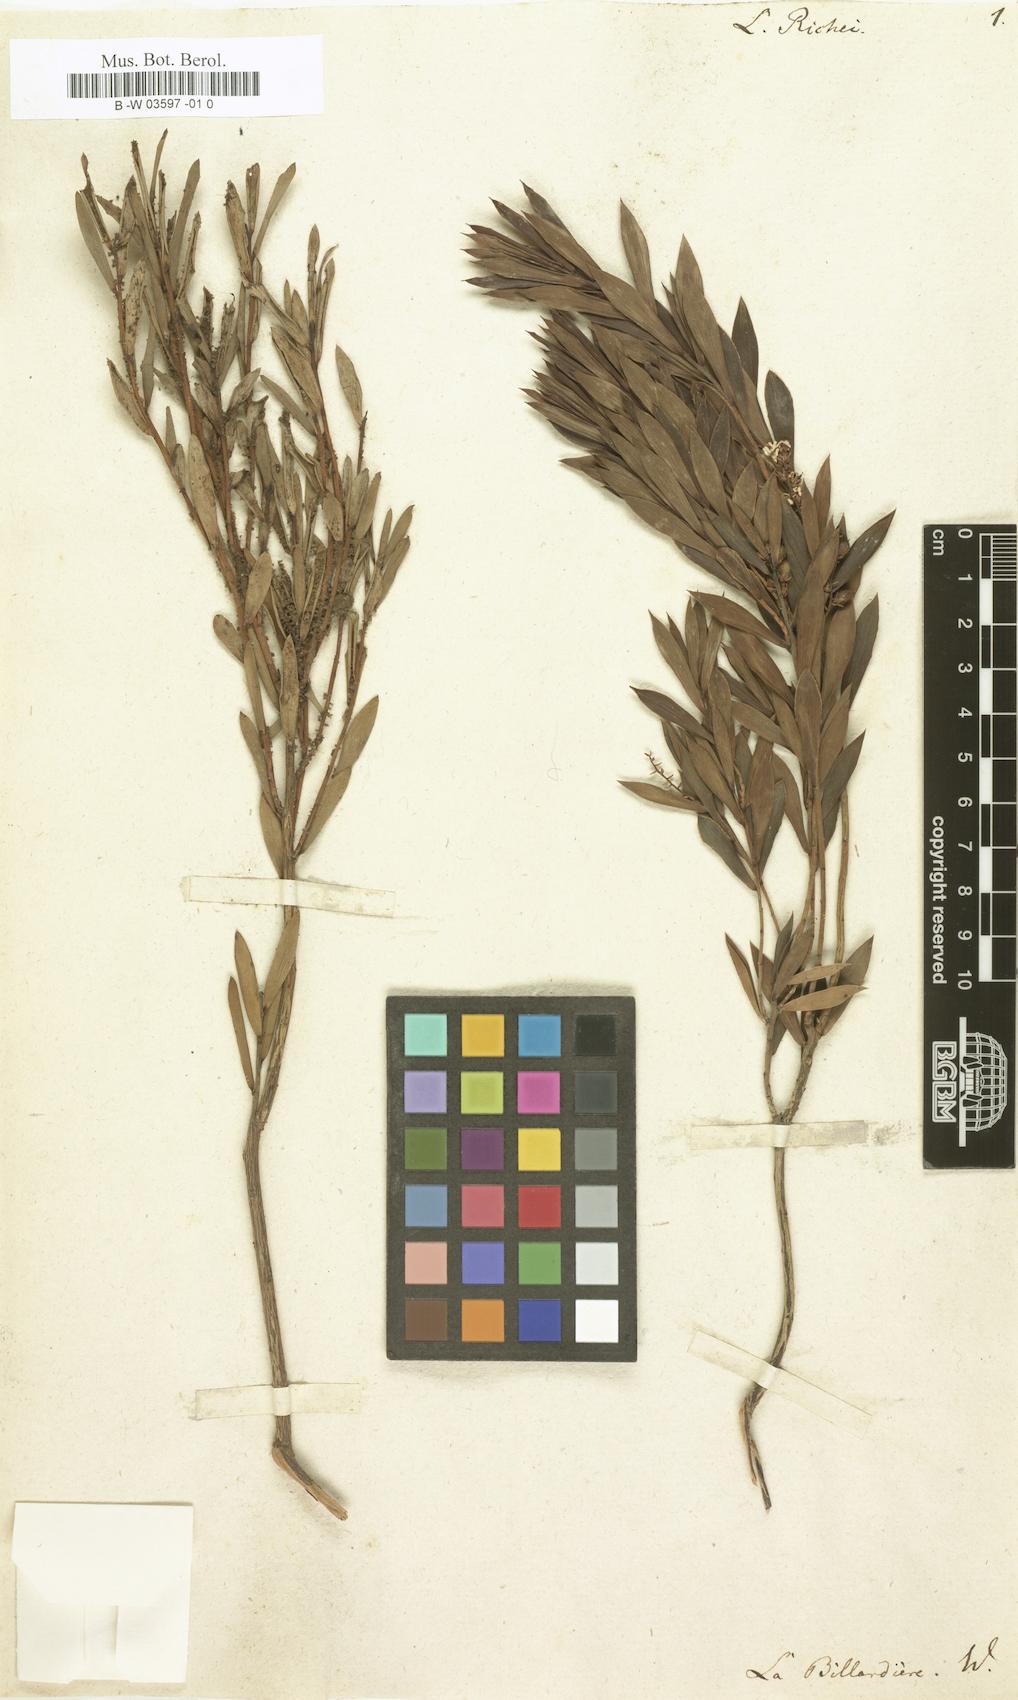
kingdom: Plantae
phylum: Tracheophyta
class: Magnoliopsida
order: Ericales
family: Ericaceae
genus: Leptecophylla
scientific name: Leptecophylla parvifolia
